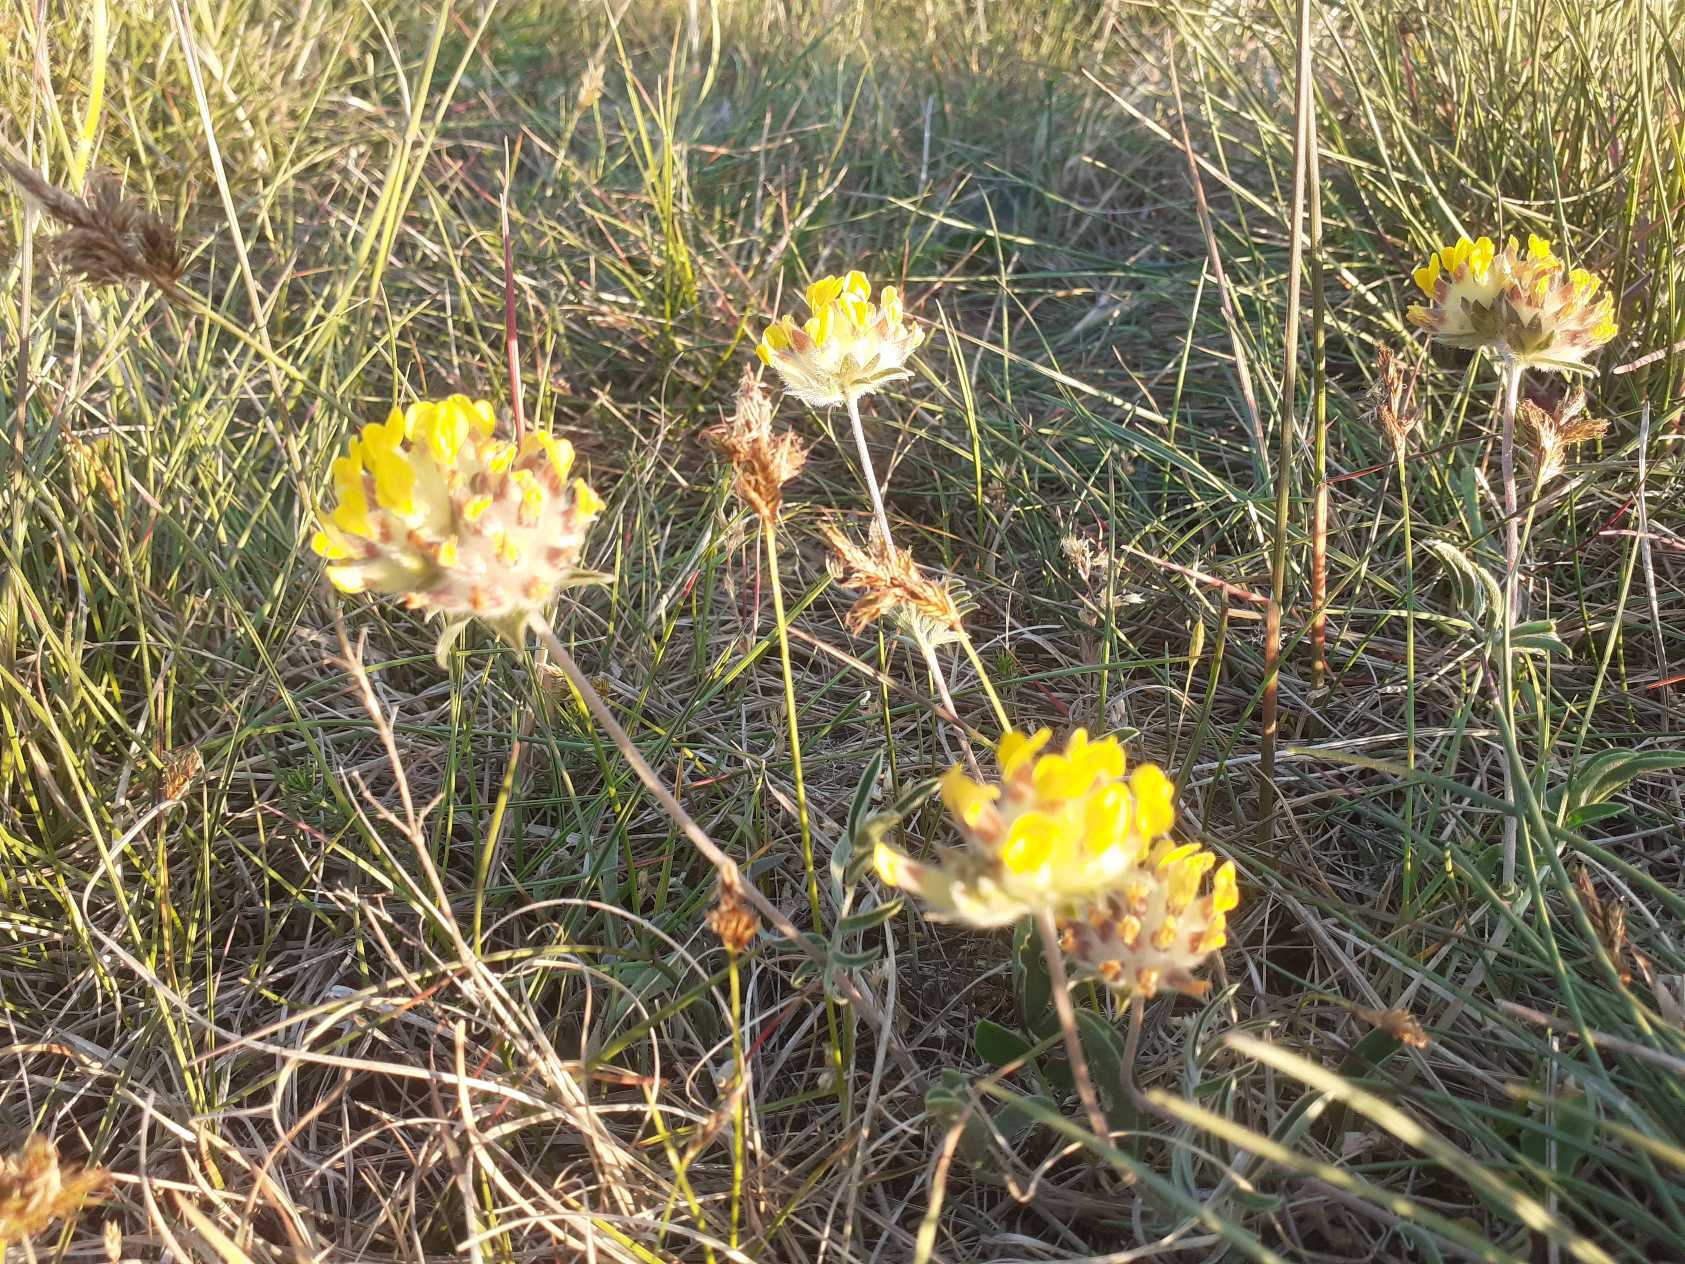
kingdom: Plantae
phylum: Tracheophyta
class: Magnoliopsida
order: Fabales
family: Fabaceae
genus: Anthyllis
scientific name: Anthyllis vulneraria
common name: Rundbælg
